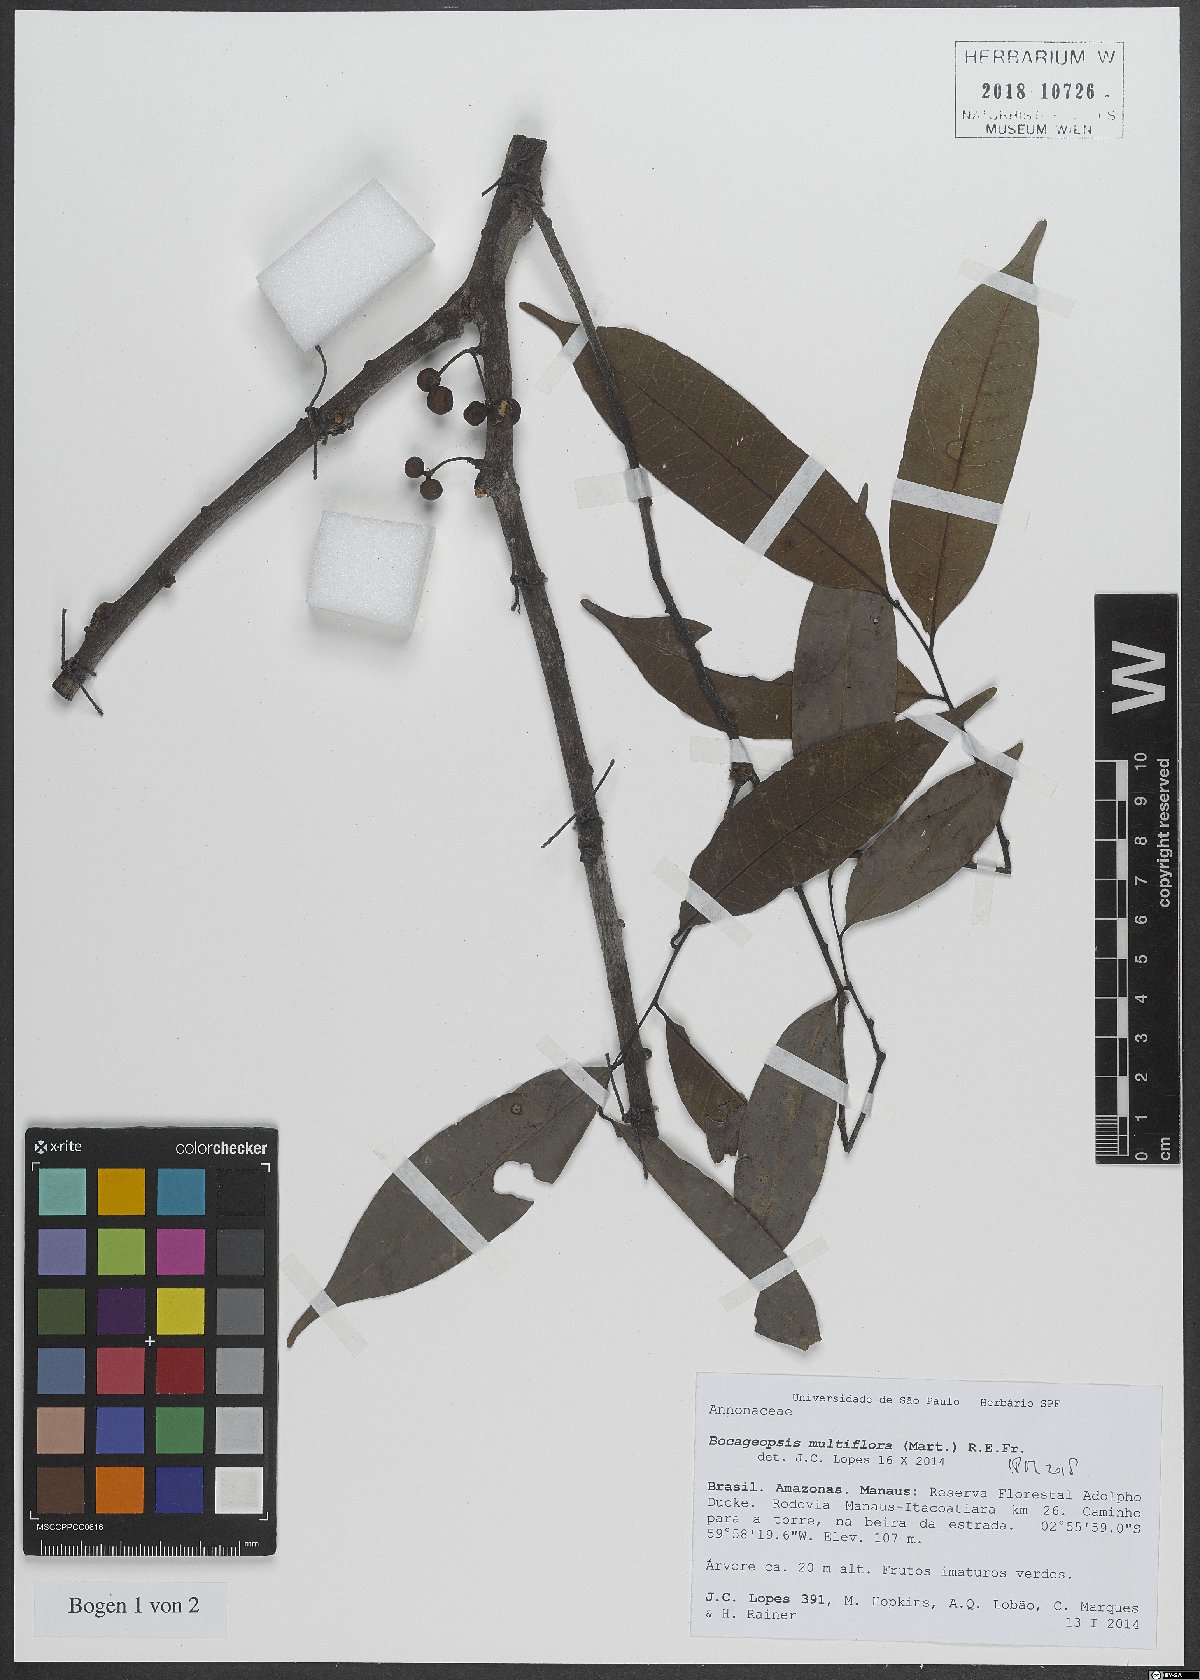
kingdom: Plantae
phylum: Tracheophyta
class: Magnoliopsida
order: Magnoliales
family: Annonaceae
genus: Bocageopsis
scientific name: Bocageopsis multiflora
